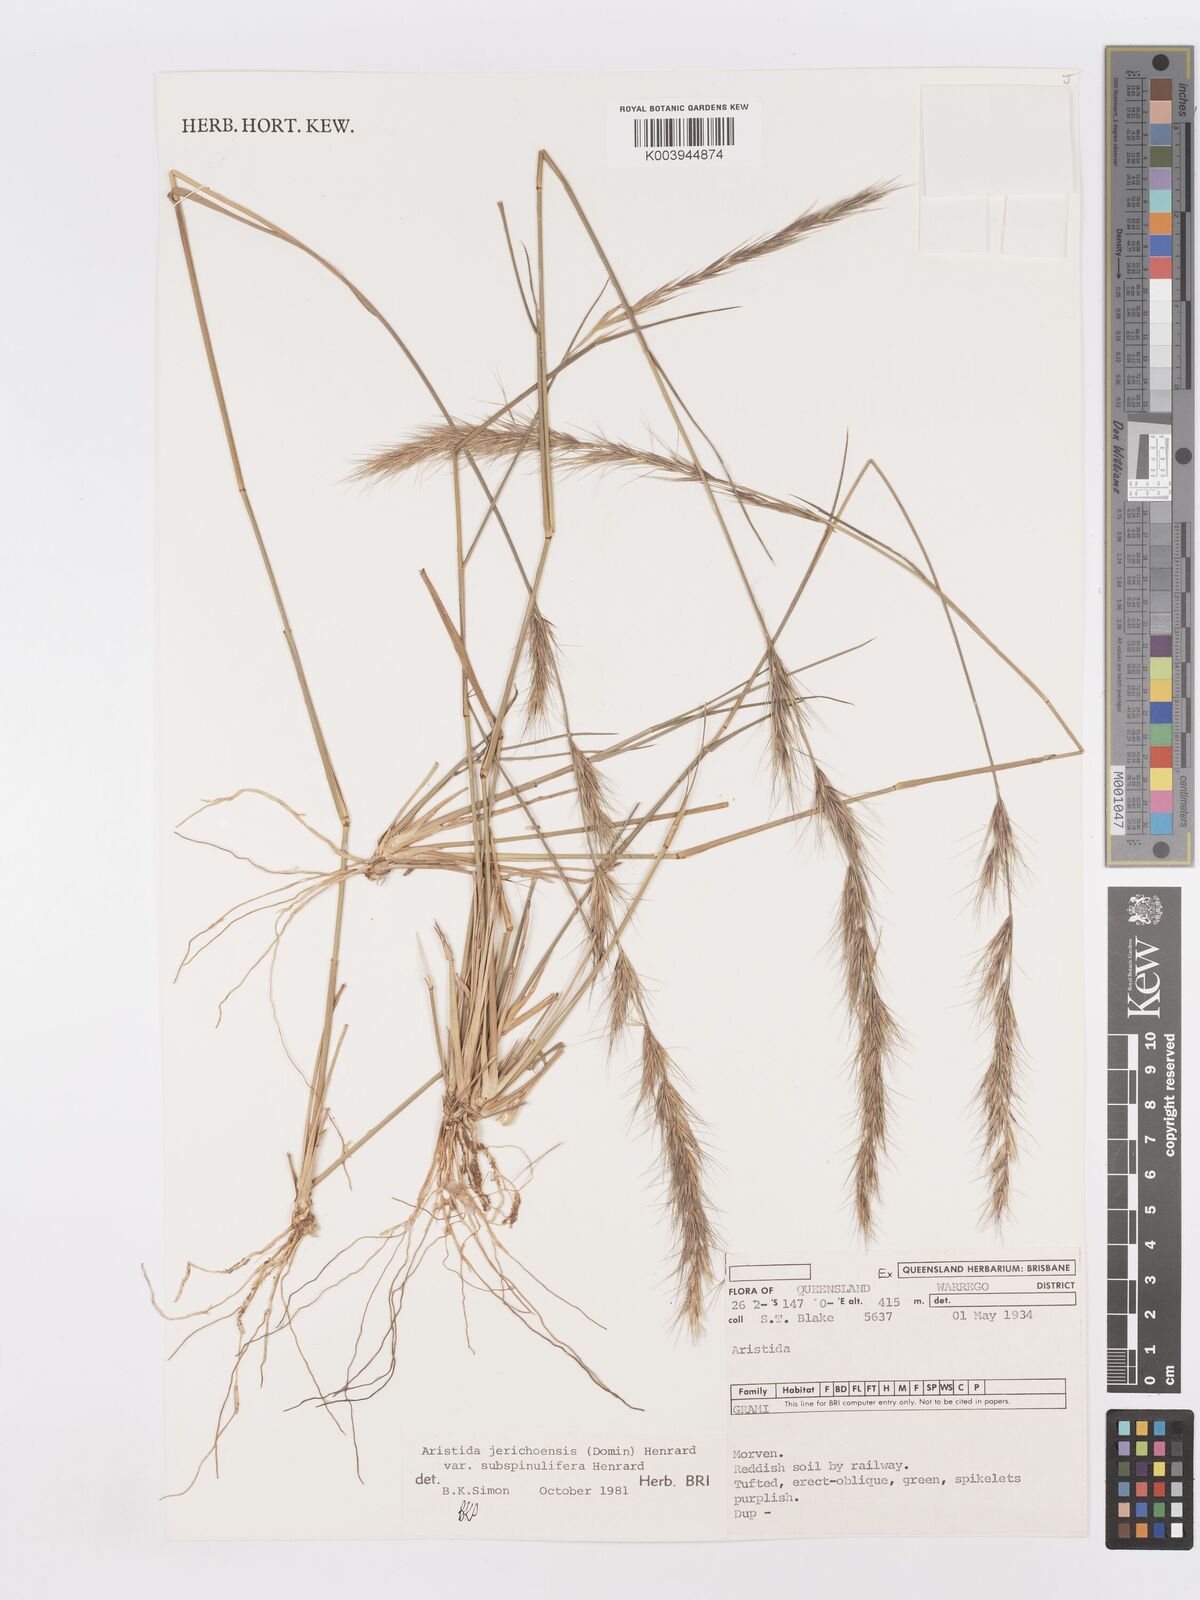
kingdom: Plantae
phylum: Tracheophyta
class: Liliopsida
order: Poales
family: Poaceae
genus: Aristida
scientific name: Aristida jerichoensis
